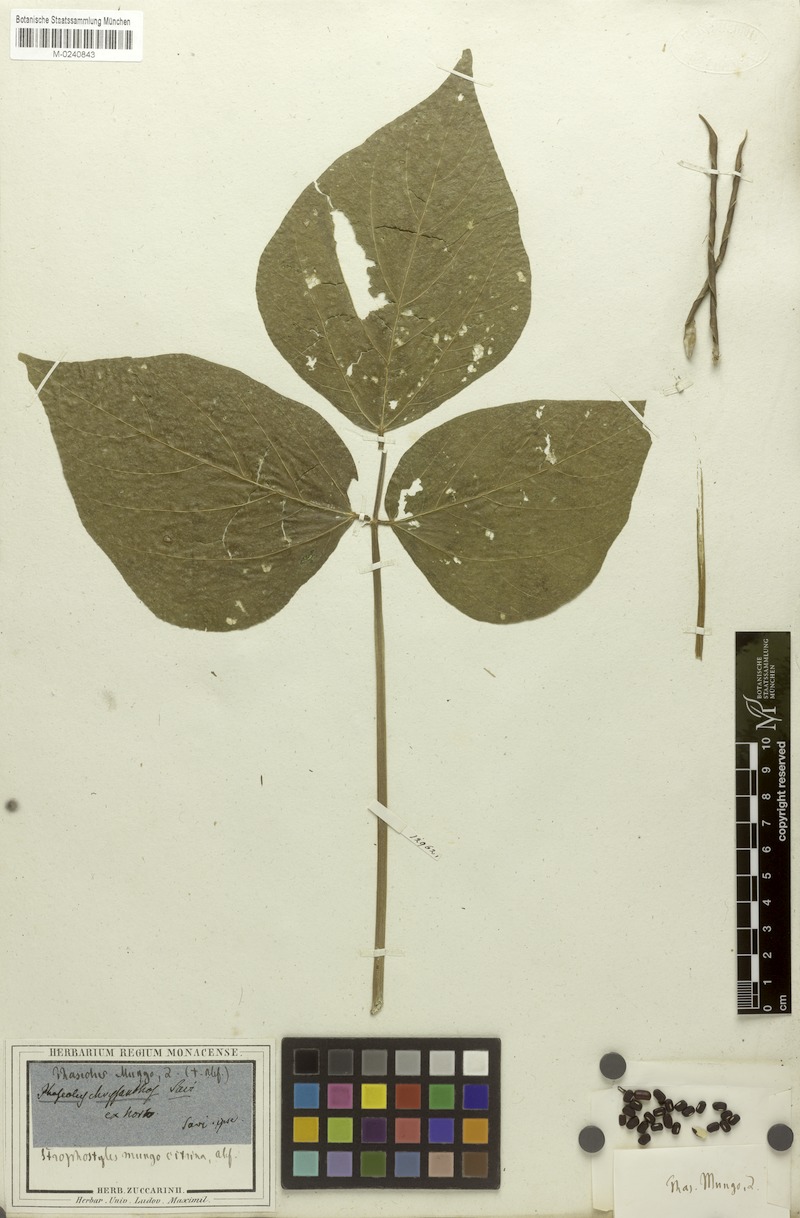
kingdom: Plantae
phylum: Tracheophyta
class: Magnoliopsida
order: Fabales
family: Fabaceae
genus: Vigna
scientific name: Vigna angularis
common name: Adzuki bean
